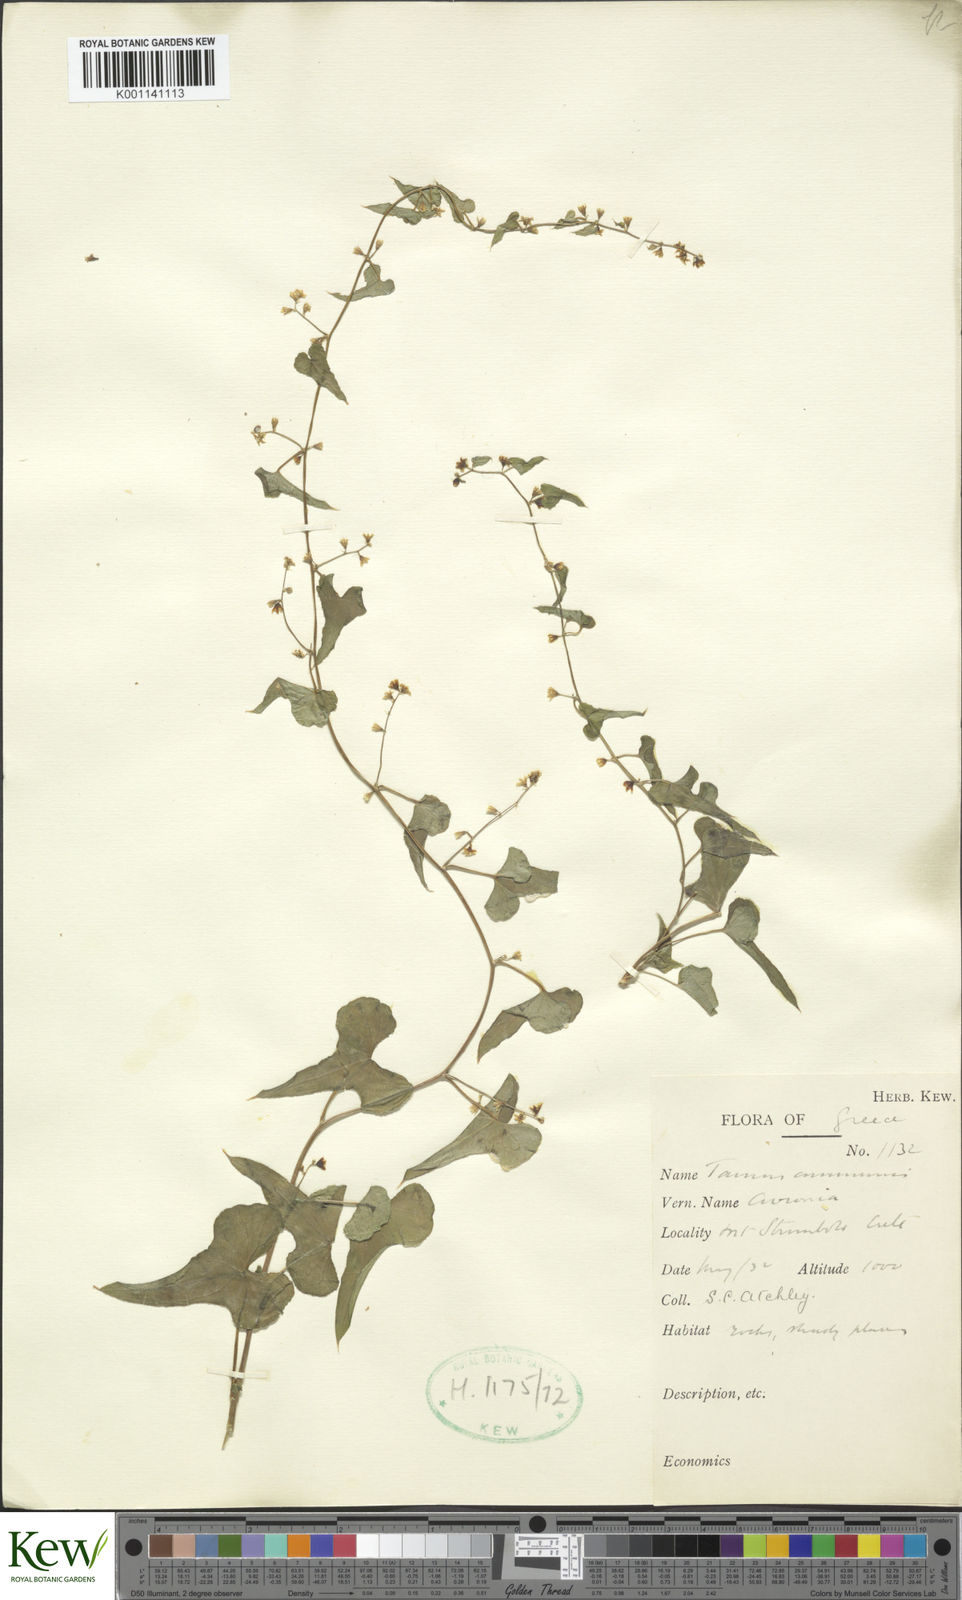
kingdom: Plantae
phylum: Tracheophyta
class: Liliopsida
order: Dioscoreales
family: Dioscoreaceae
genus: Dioscorea
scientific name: Dioscorea communis
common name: Black-bindweed
